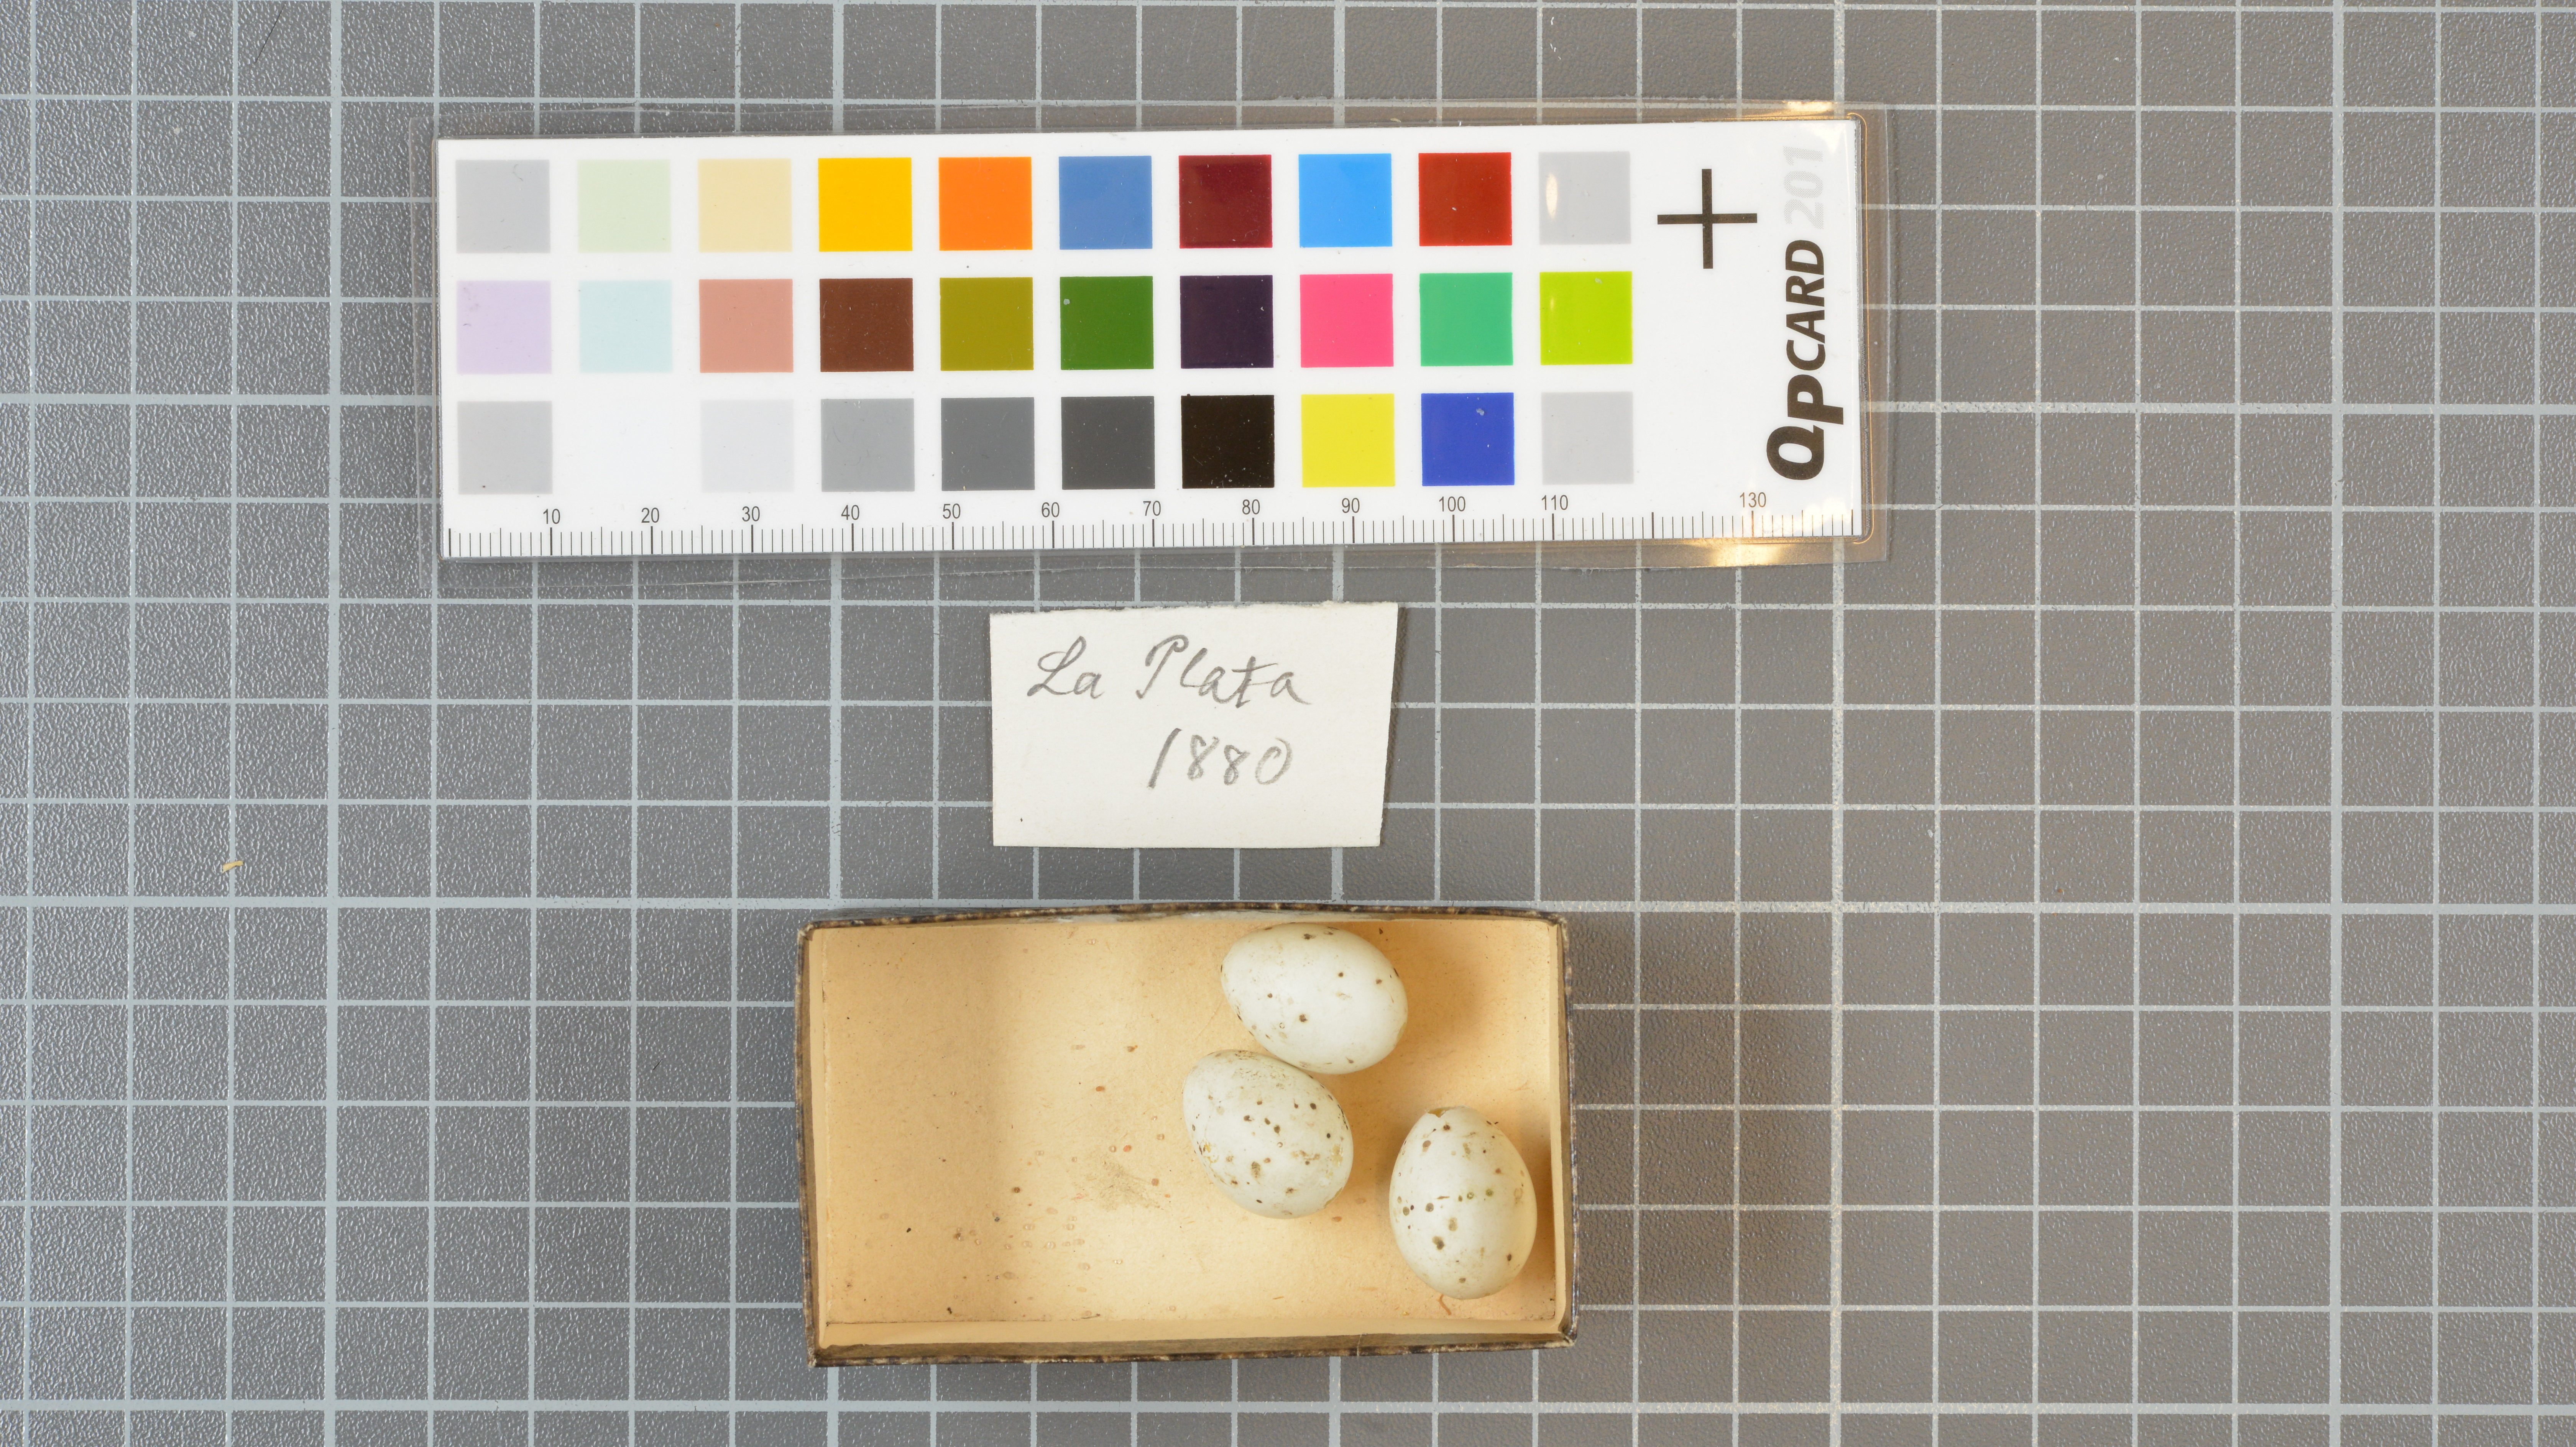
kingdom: Animalia
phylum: Chordata
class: Aves
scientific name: Aves
